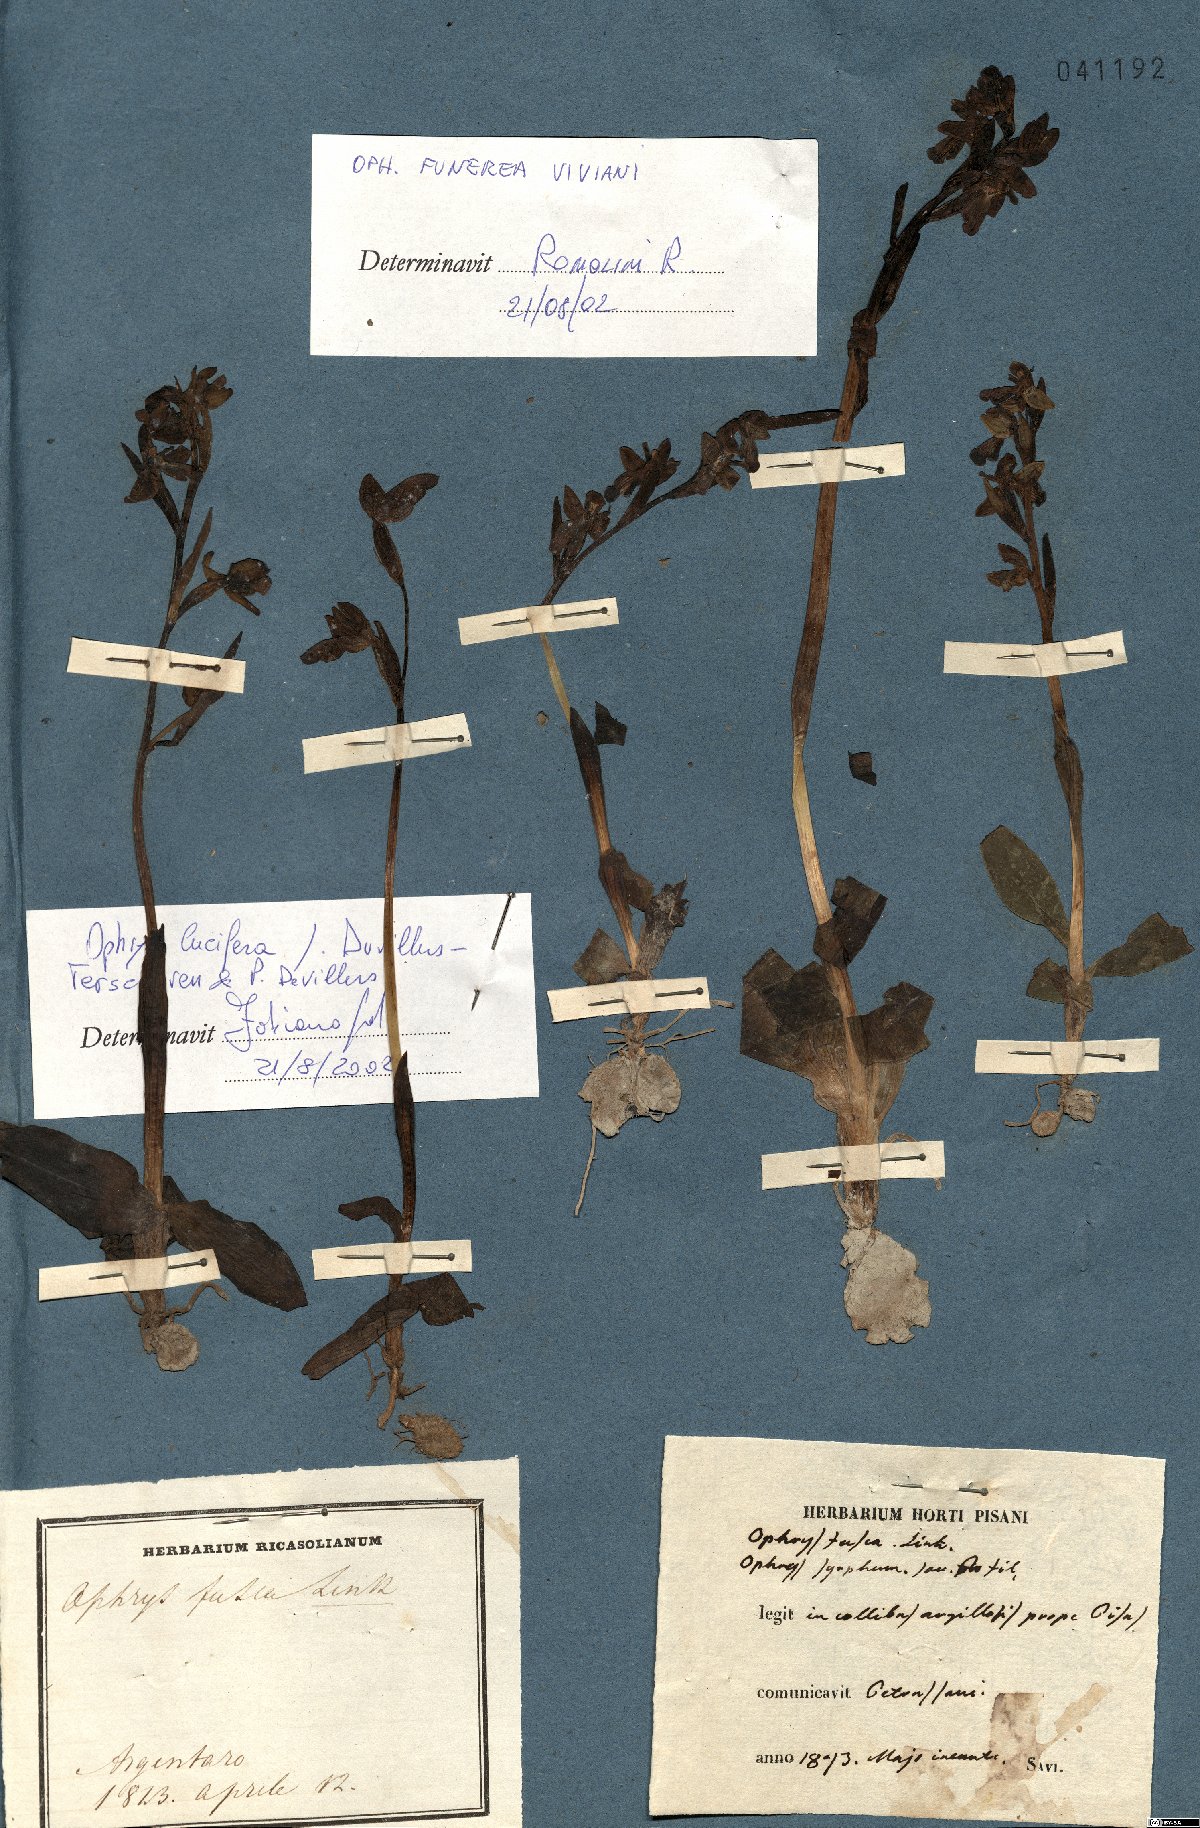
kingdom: Plantae
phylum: Tracheophyta
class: Liliopsida
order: Asparagales
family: Orchidaceae
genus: Ophrys
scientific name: Ophrys fusca
